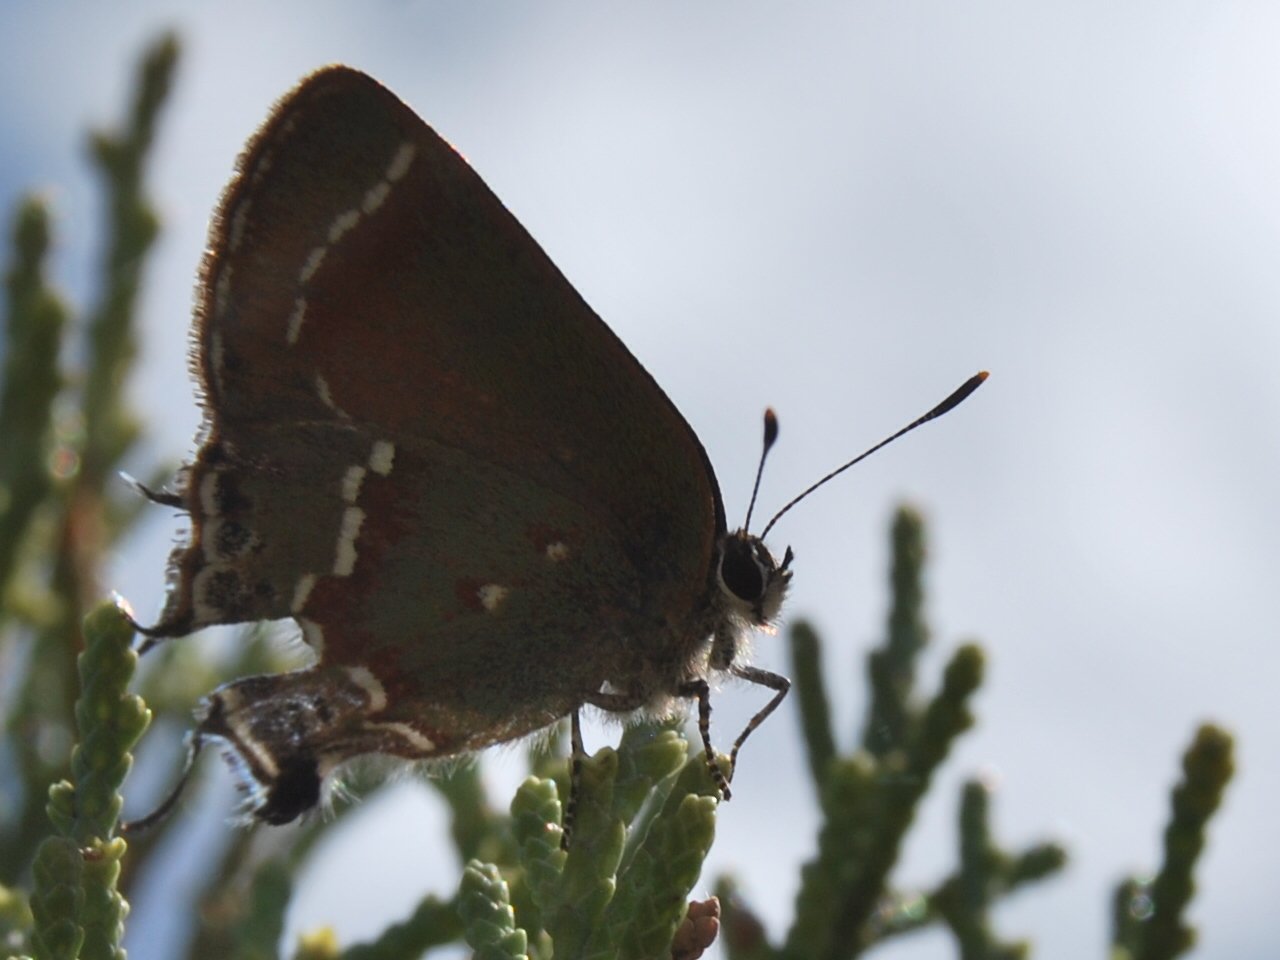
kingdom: Animalia
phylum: Arthropoda
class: Insecta
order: Lepidoptera
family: Lycaenidae
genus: Mitoura
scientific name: Mitoura gryneus
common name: Juniper Hairstreak
